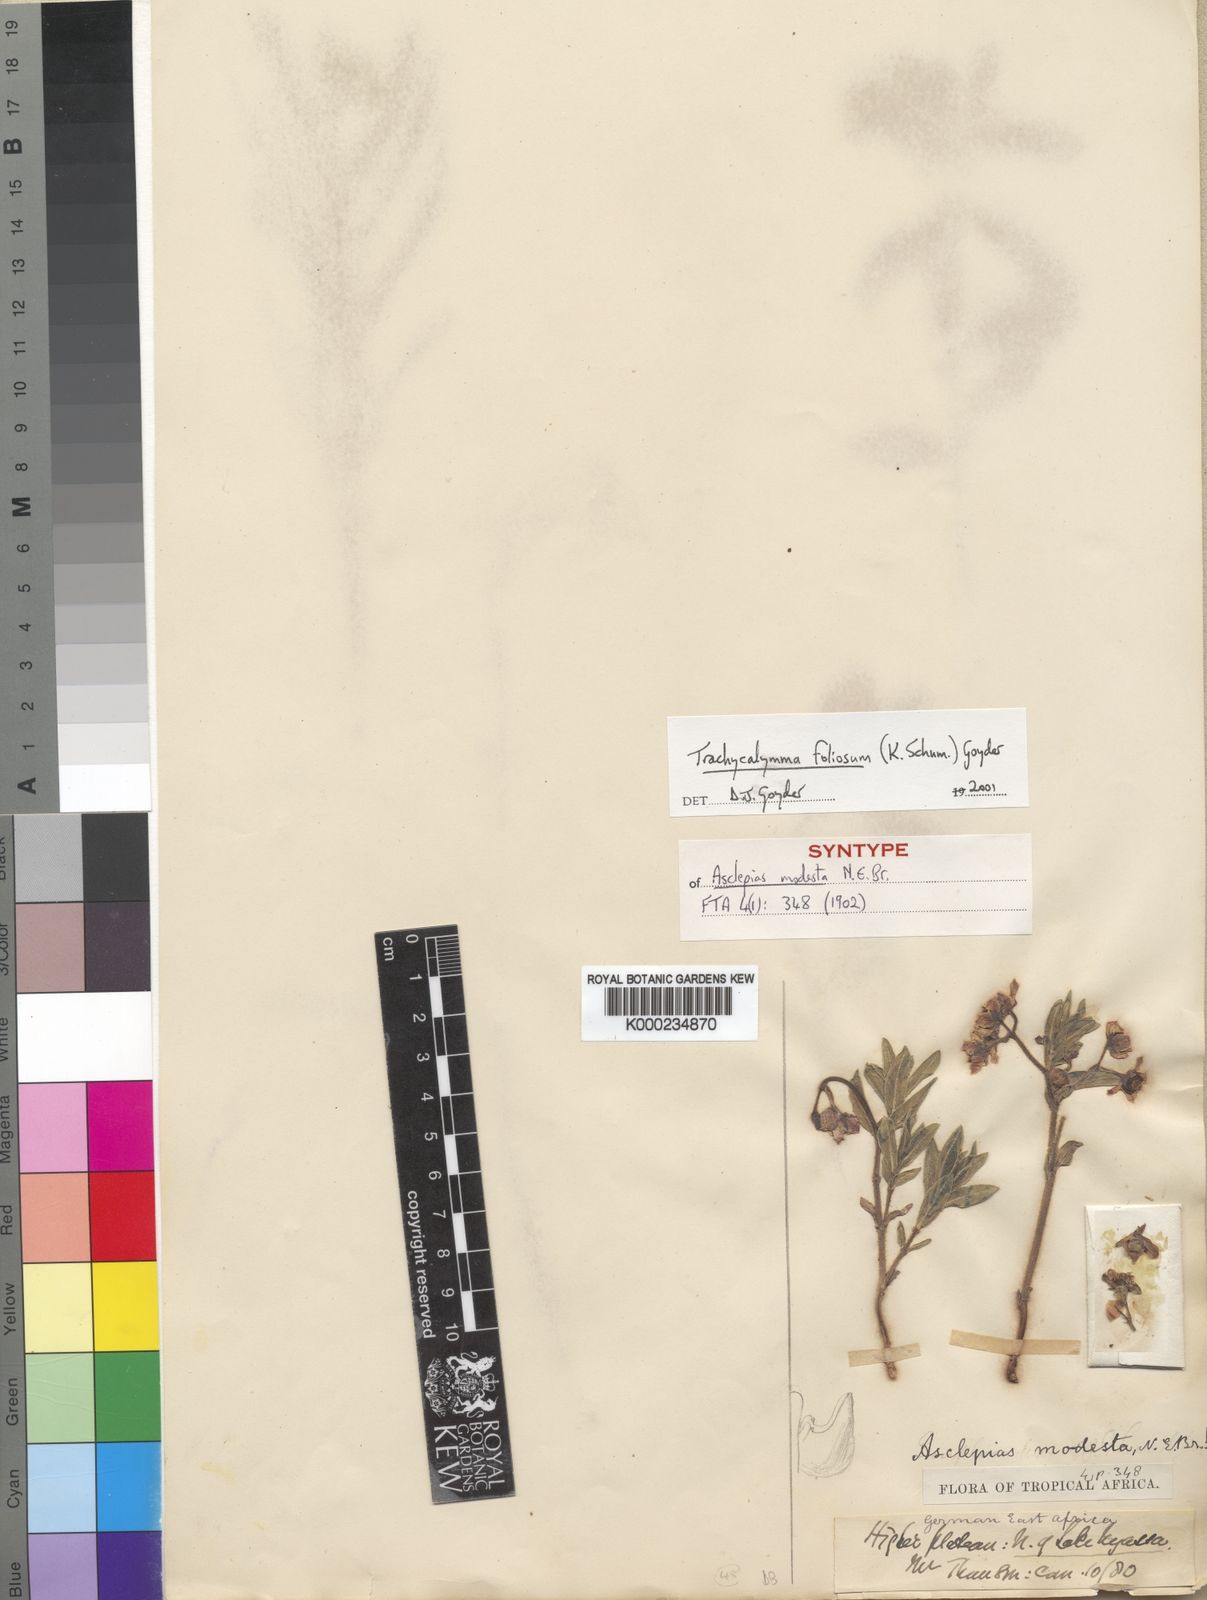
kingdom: Plantae
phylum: Tracheophyta
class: Magnoliopsida
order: Gentianales
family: Apocynaceae
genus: Asclepias
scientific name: Asclepias foliosa
